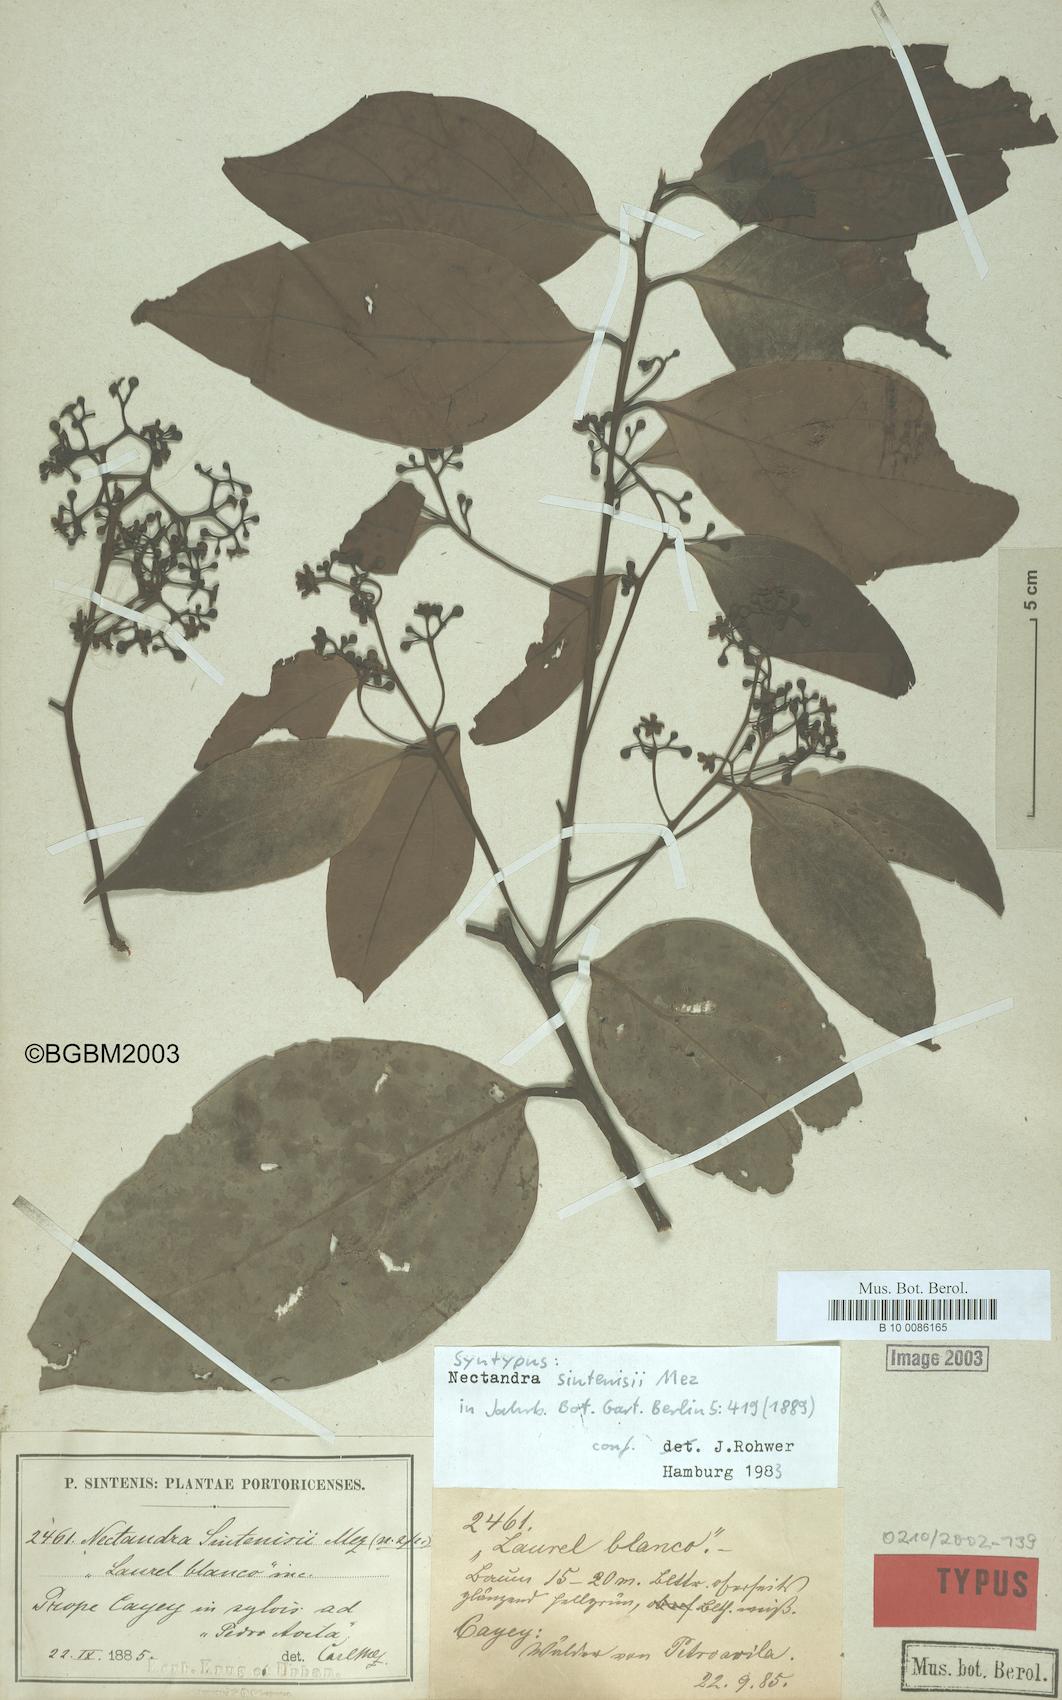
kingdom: Plantae
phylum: Tracheophyta
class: Magnoliopsida
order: Laurales
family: Lauraceae
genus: Nectandra
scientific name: Nectandra turbacensis
